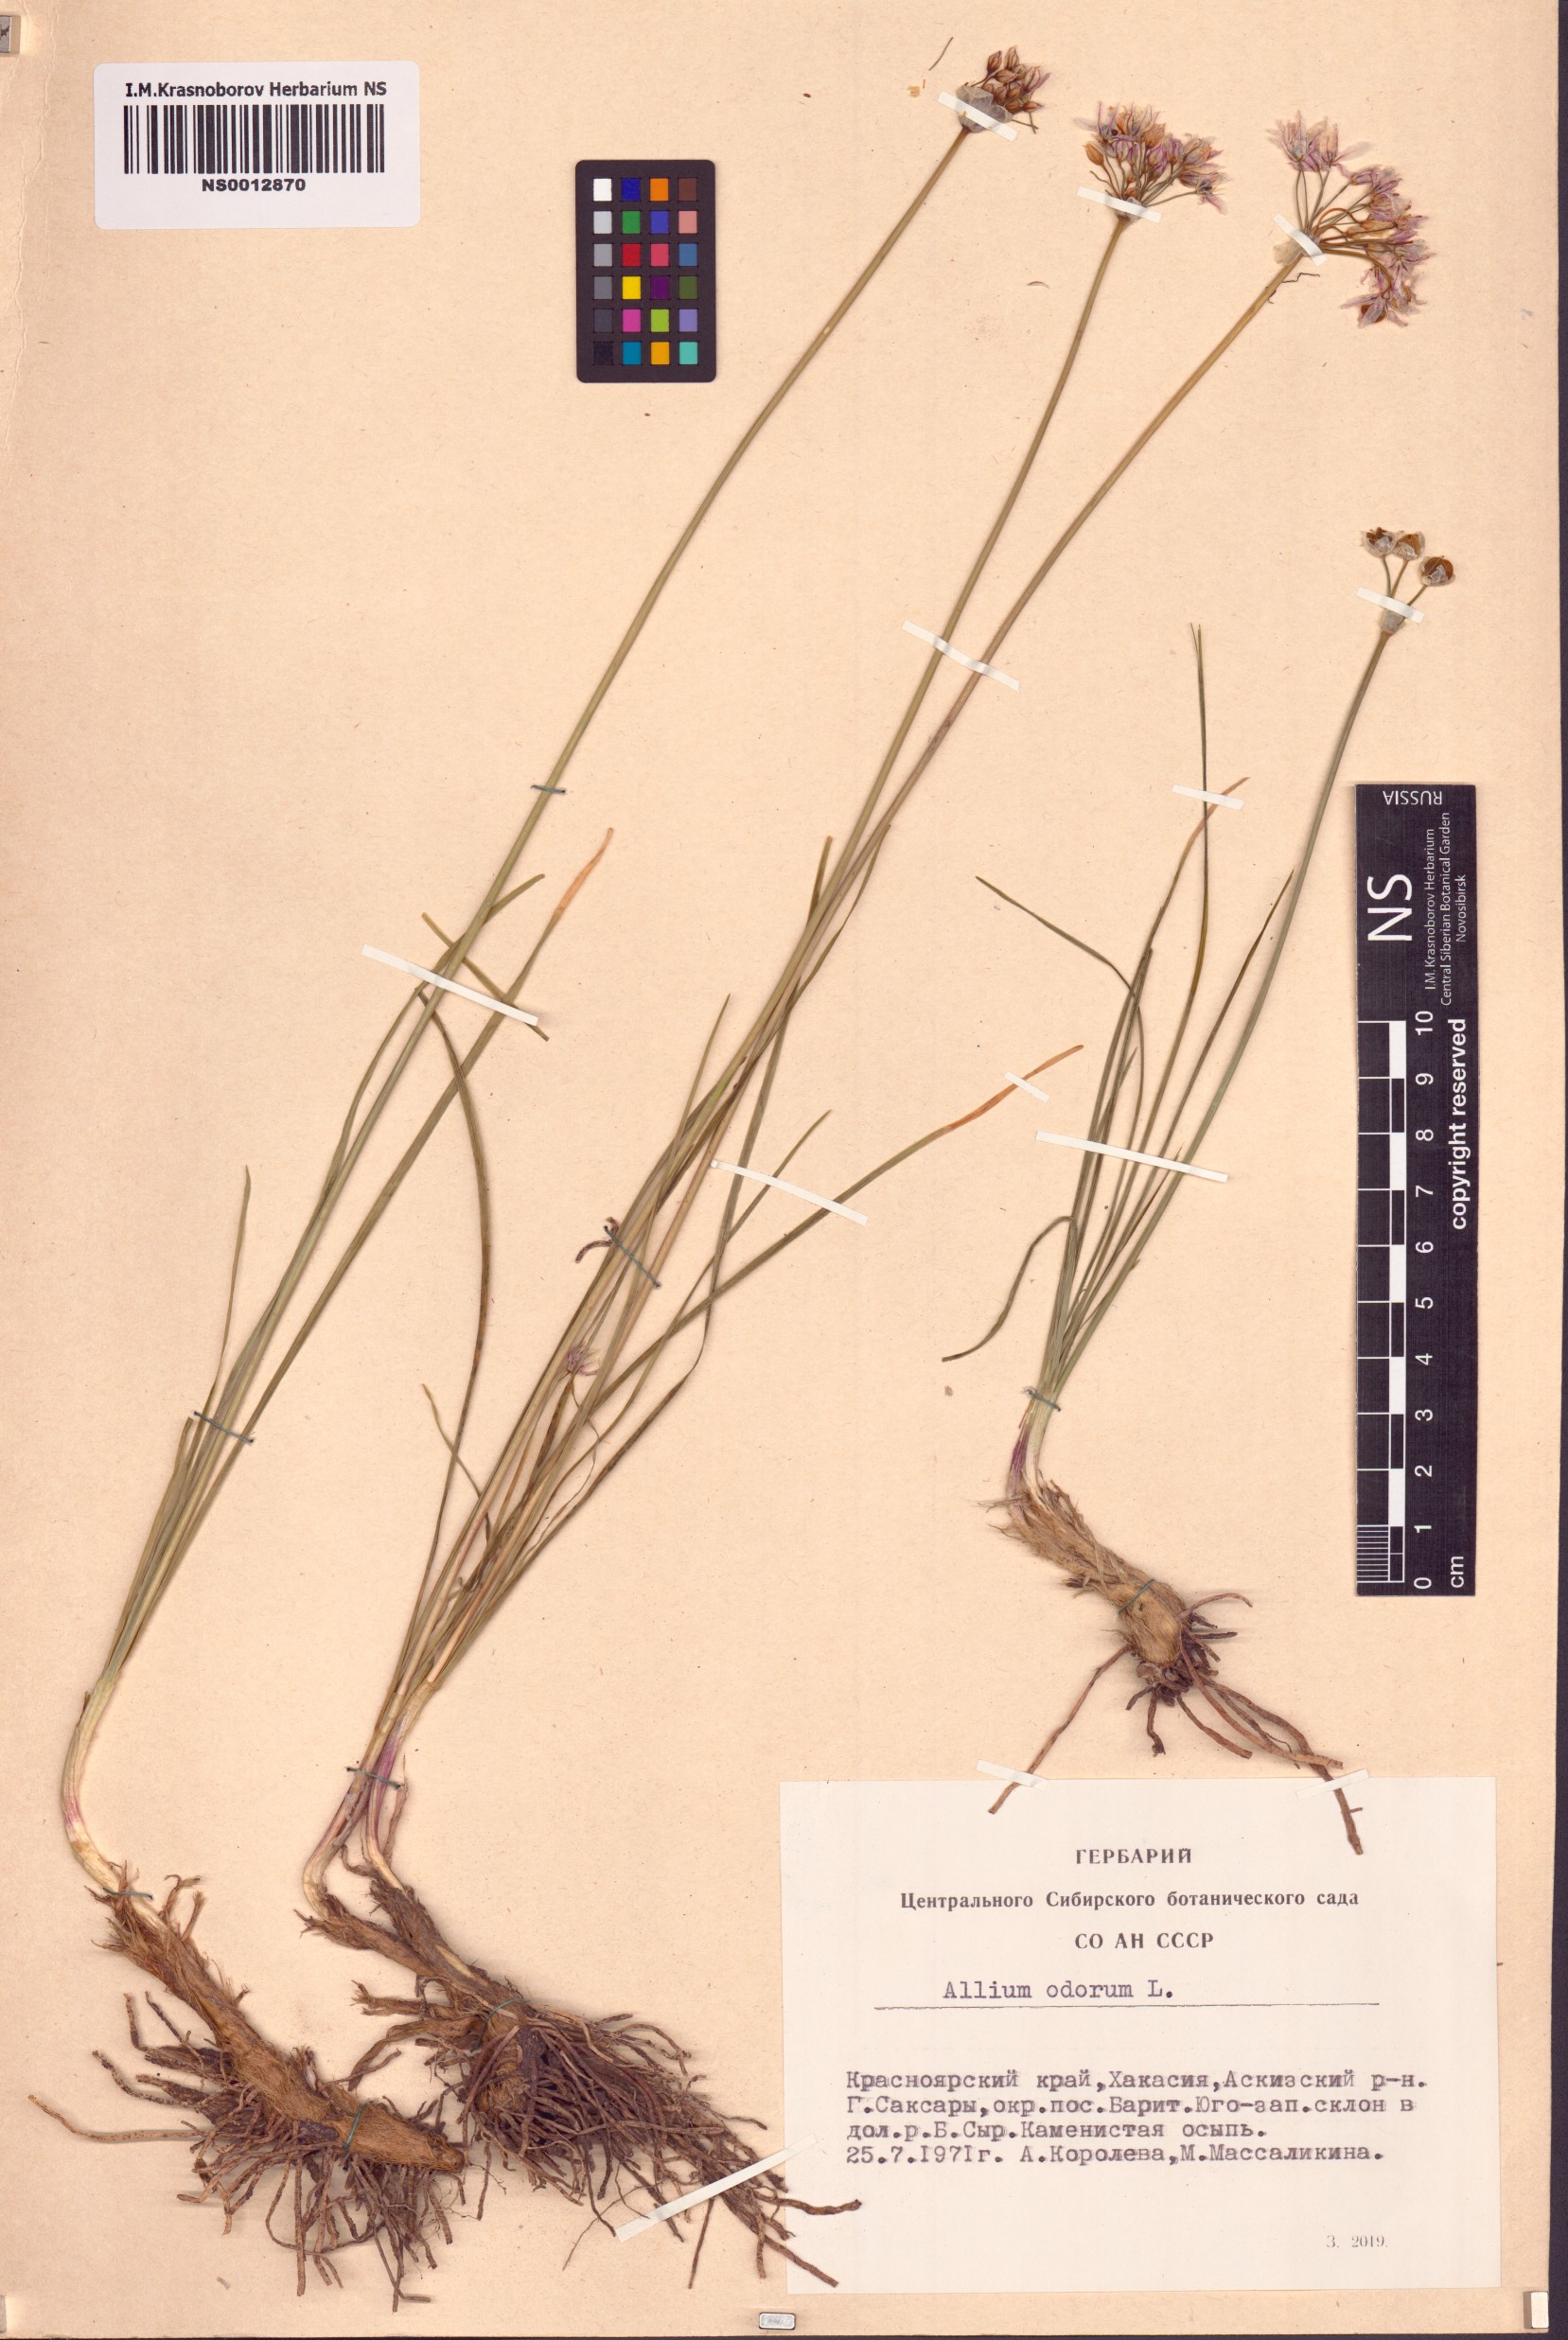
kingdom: Plantae
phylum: Tracheophyta
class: Liliopsida
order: Asparagales
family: Amaryllidaceae
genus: Allium
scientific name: Allium ramosum
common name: Fragrant garlic
